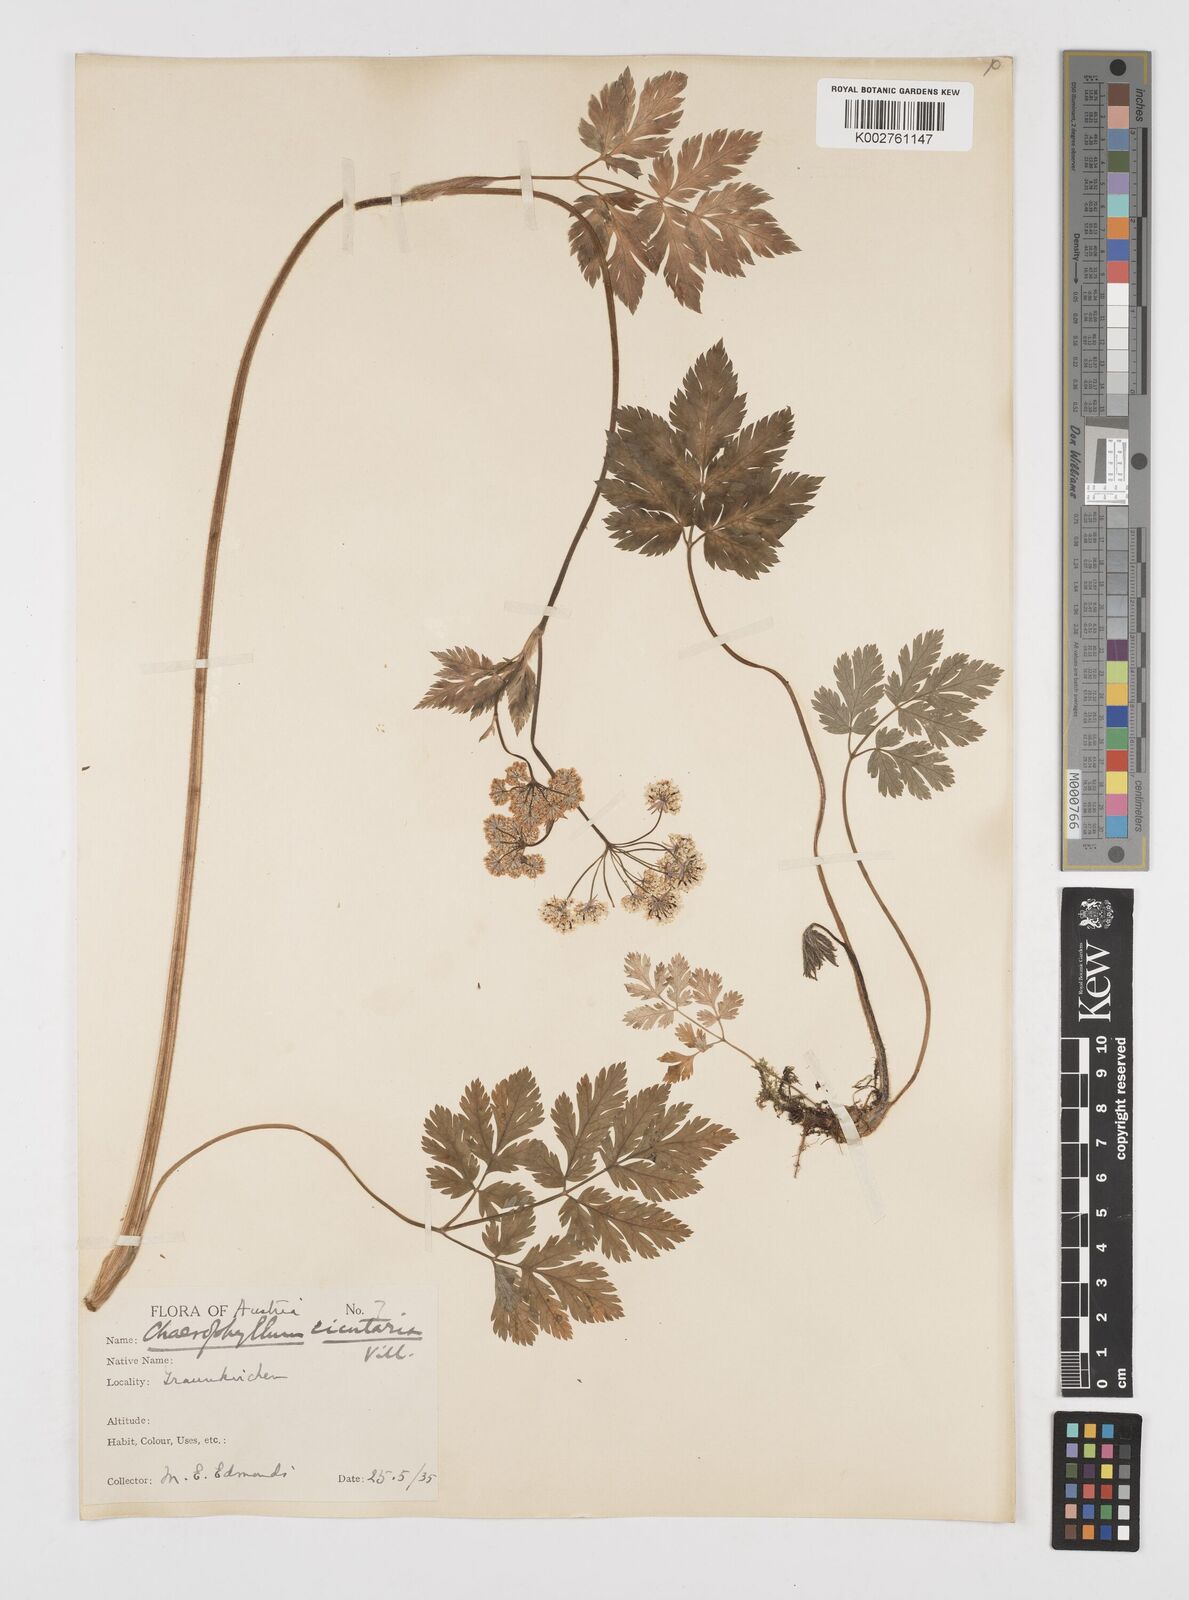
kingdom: Plantae
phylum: Tracheophyta
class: Magnoliopsida
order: Apiales
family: Apiaceae
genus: Chaerophyllum
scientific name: Chaerophyllum hirsutum
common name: Hairy chervil
